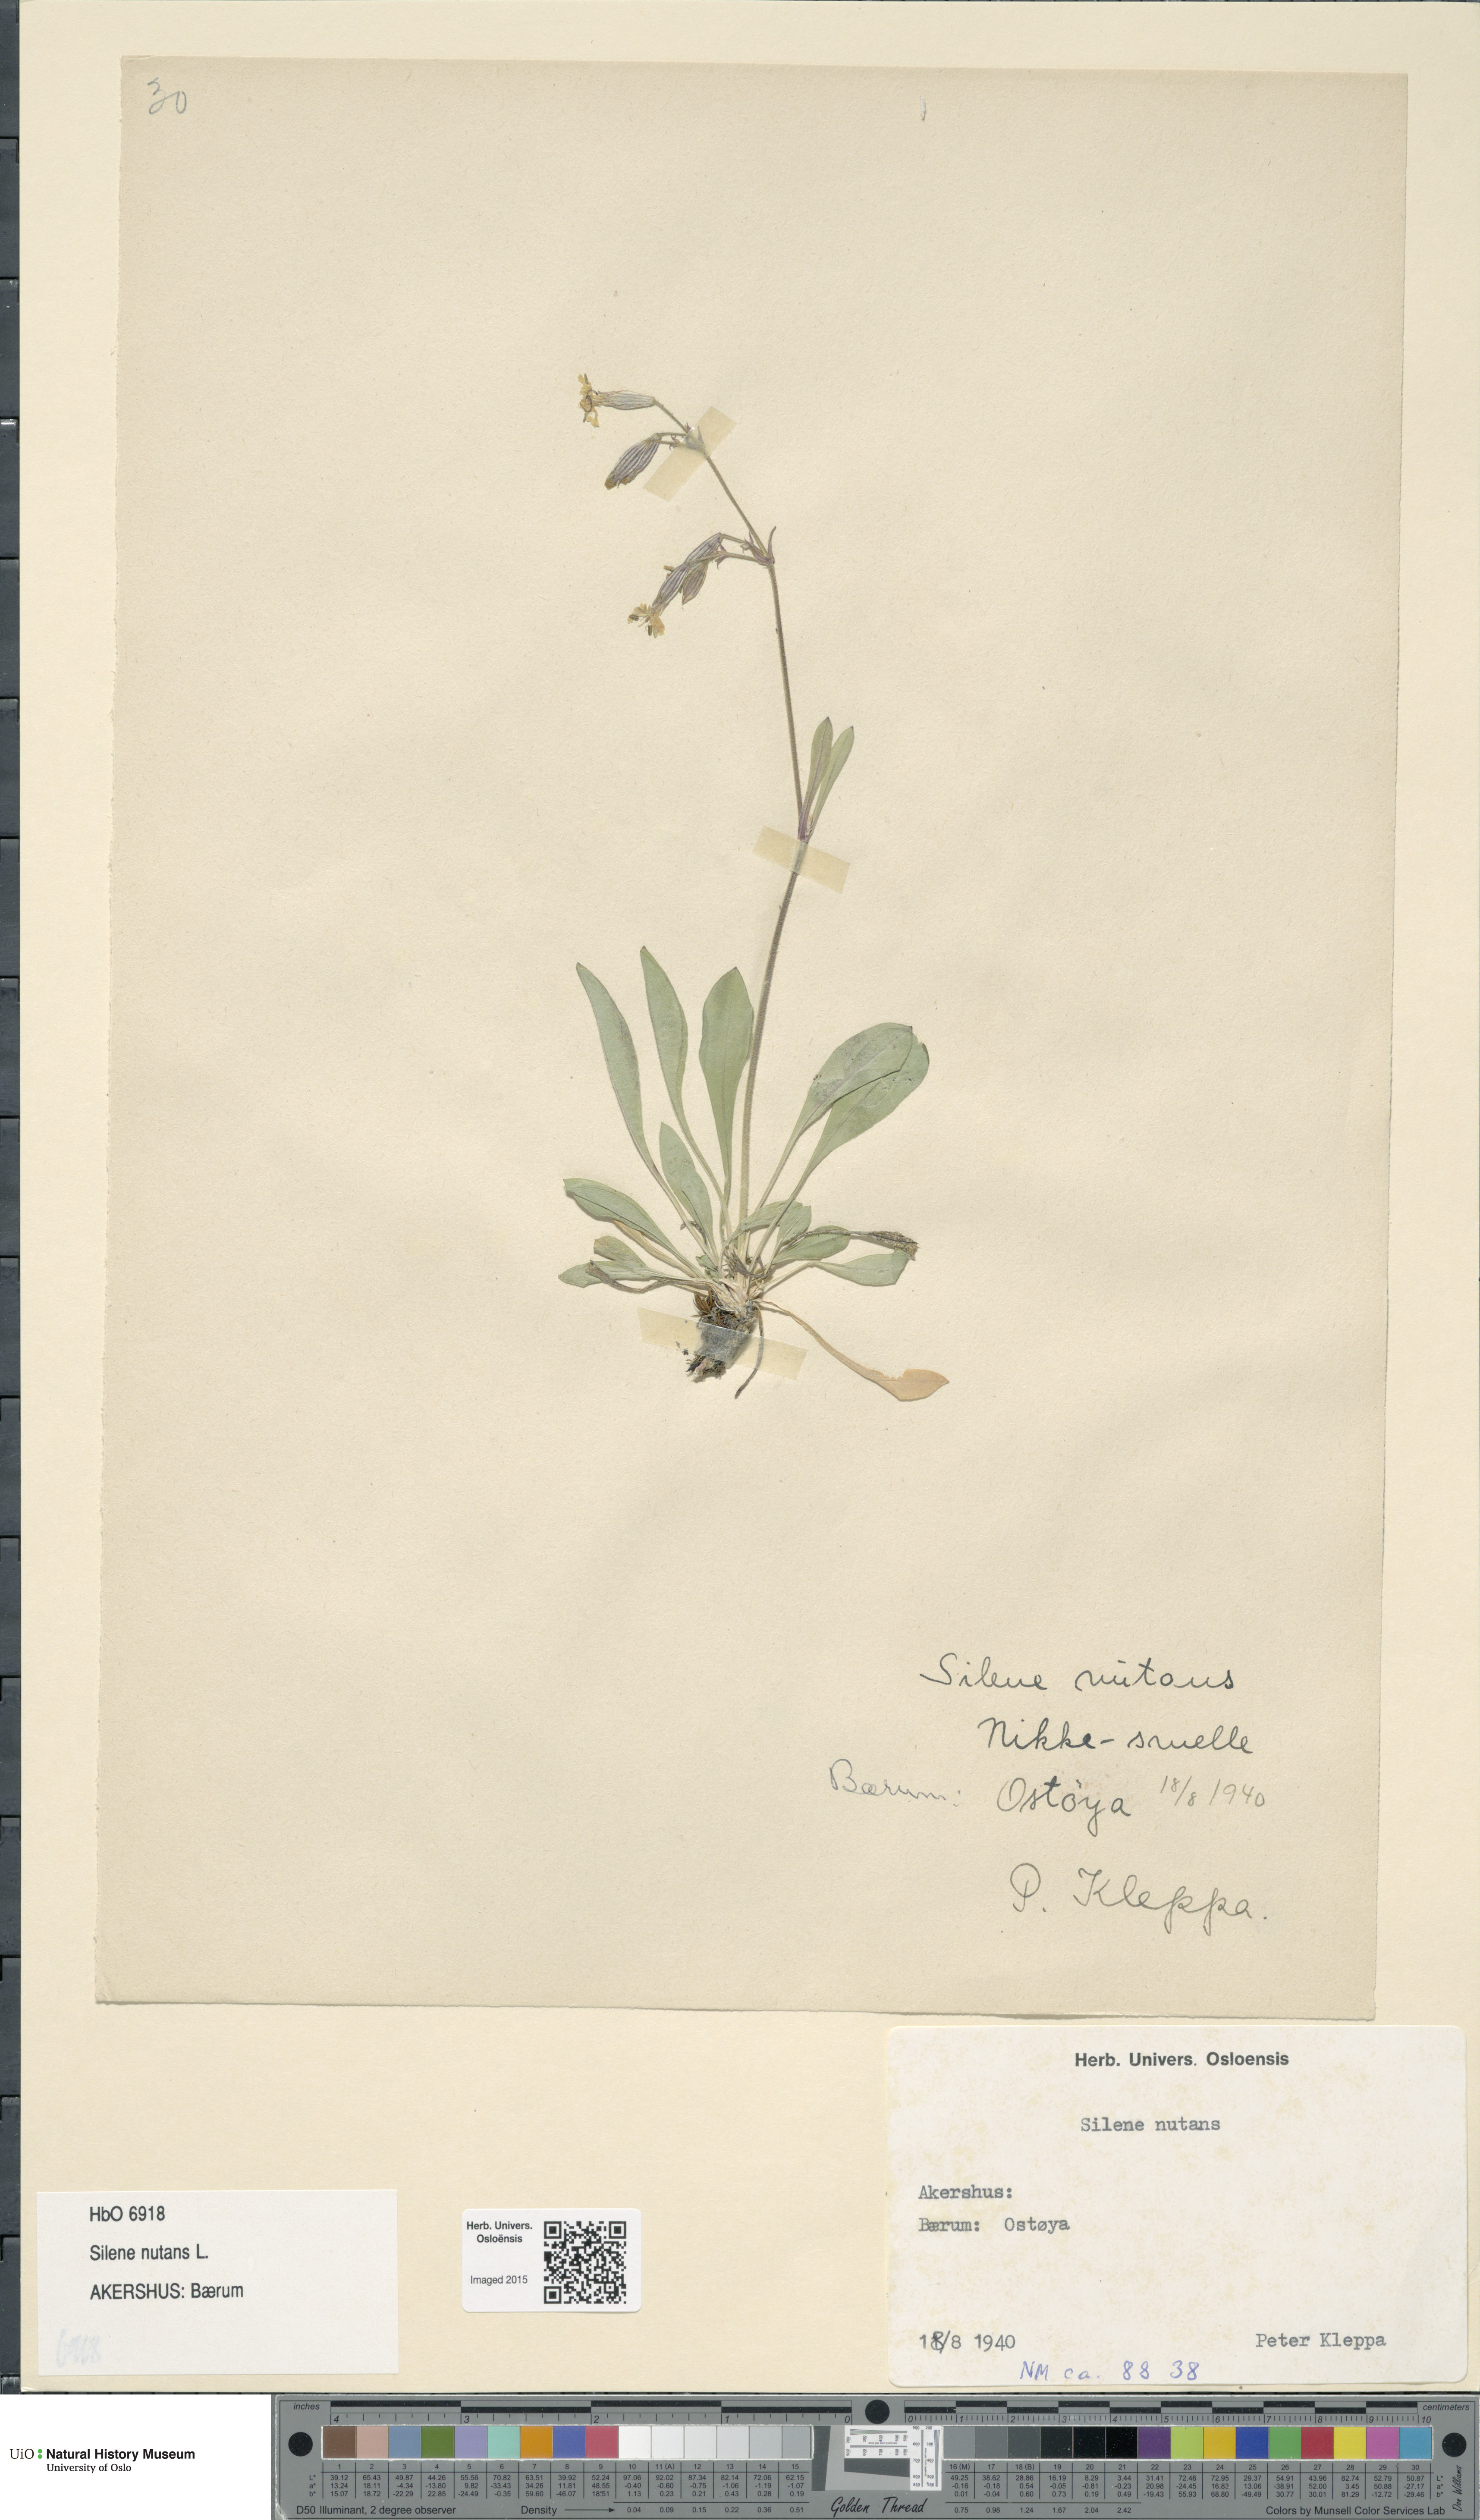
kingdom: Plantae
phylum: Tracheophyta
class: Magnoliopsida
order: Caryophyllales
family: Caryophyllaceae
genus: Silene
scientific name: Silene nutans
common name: Nottingham catchfly
